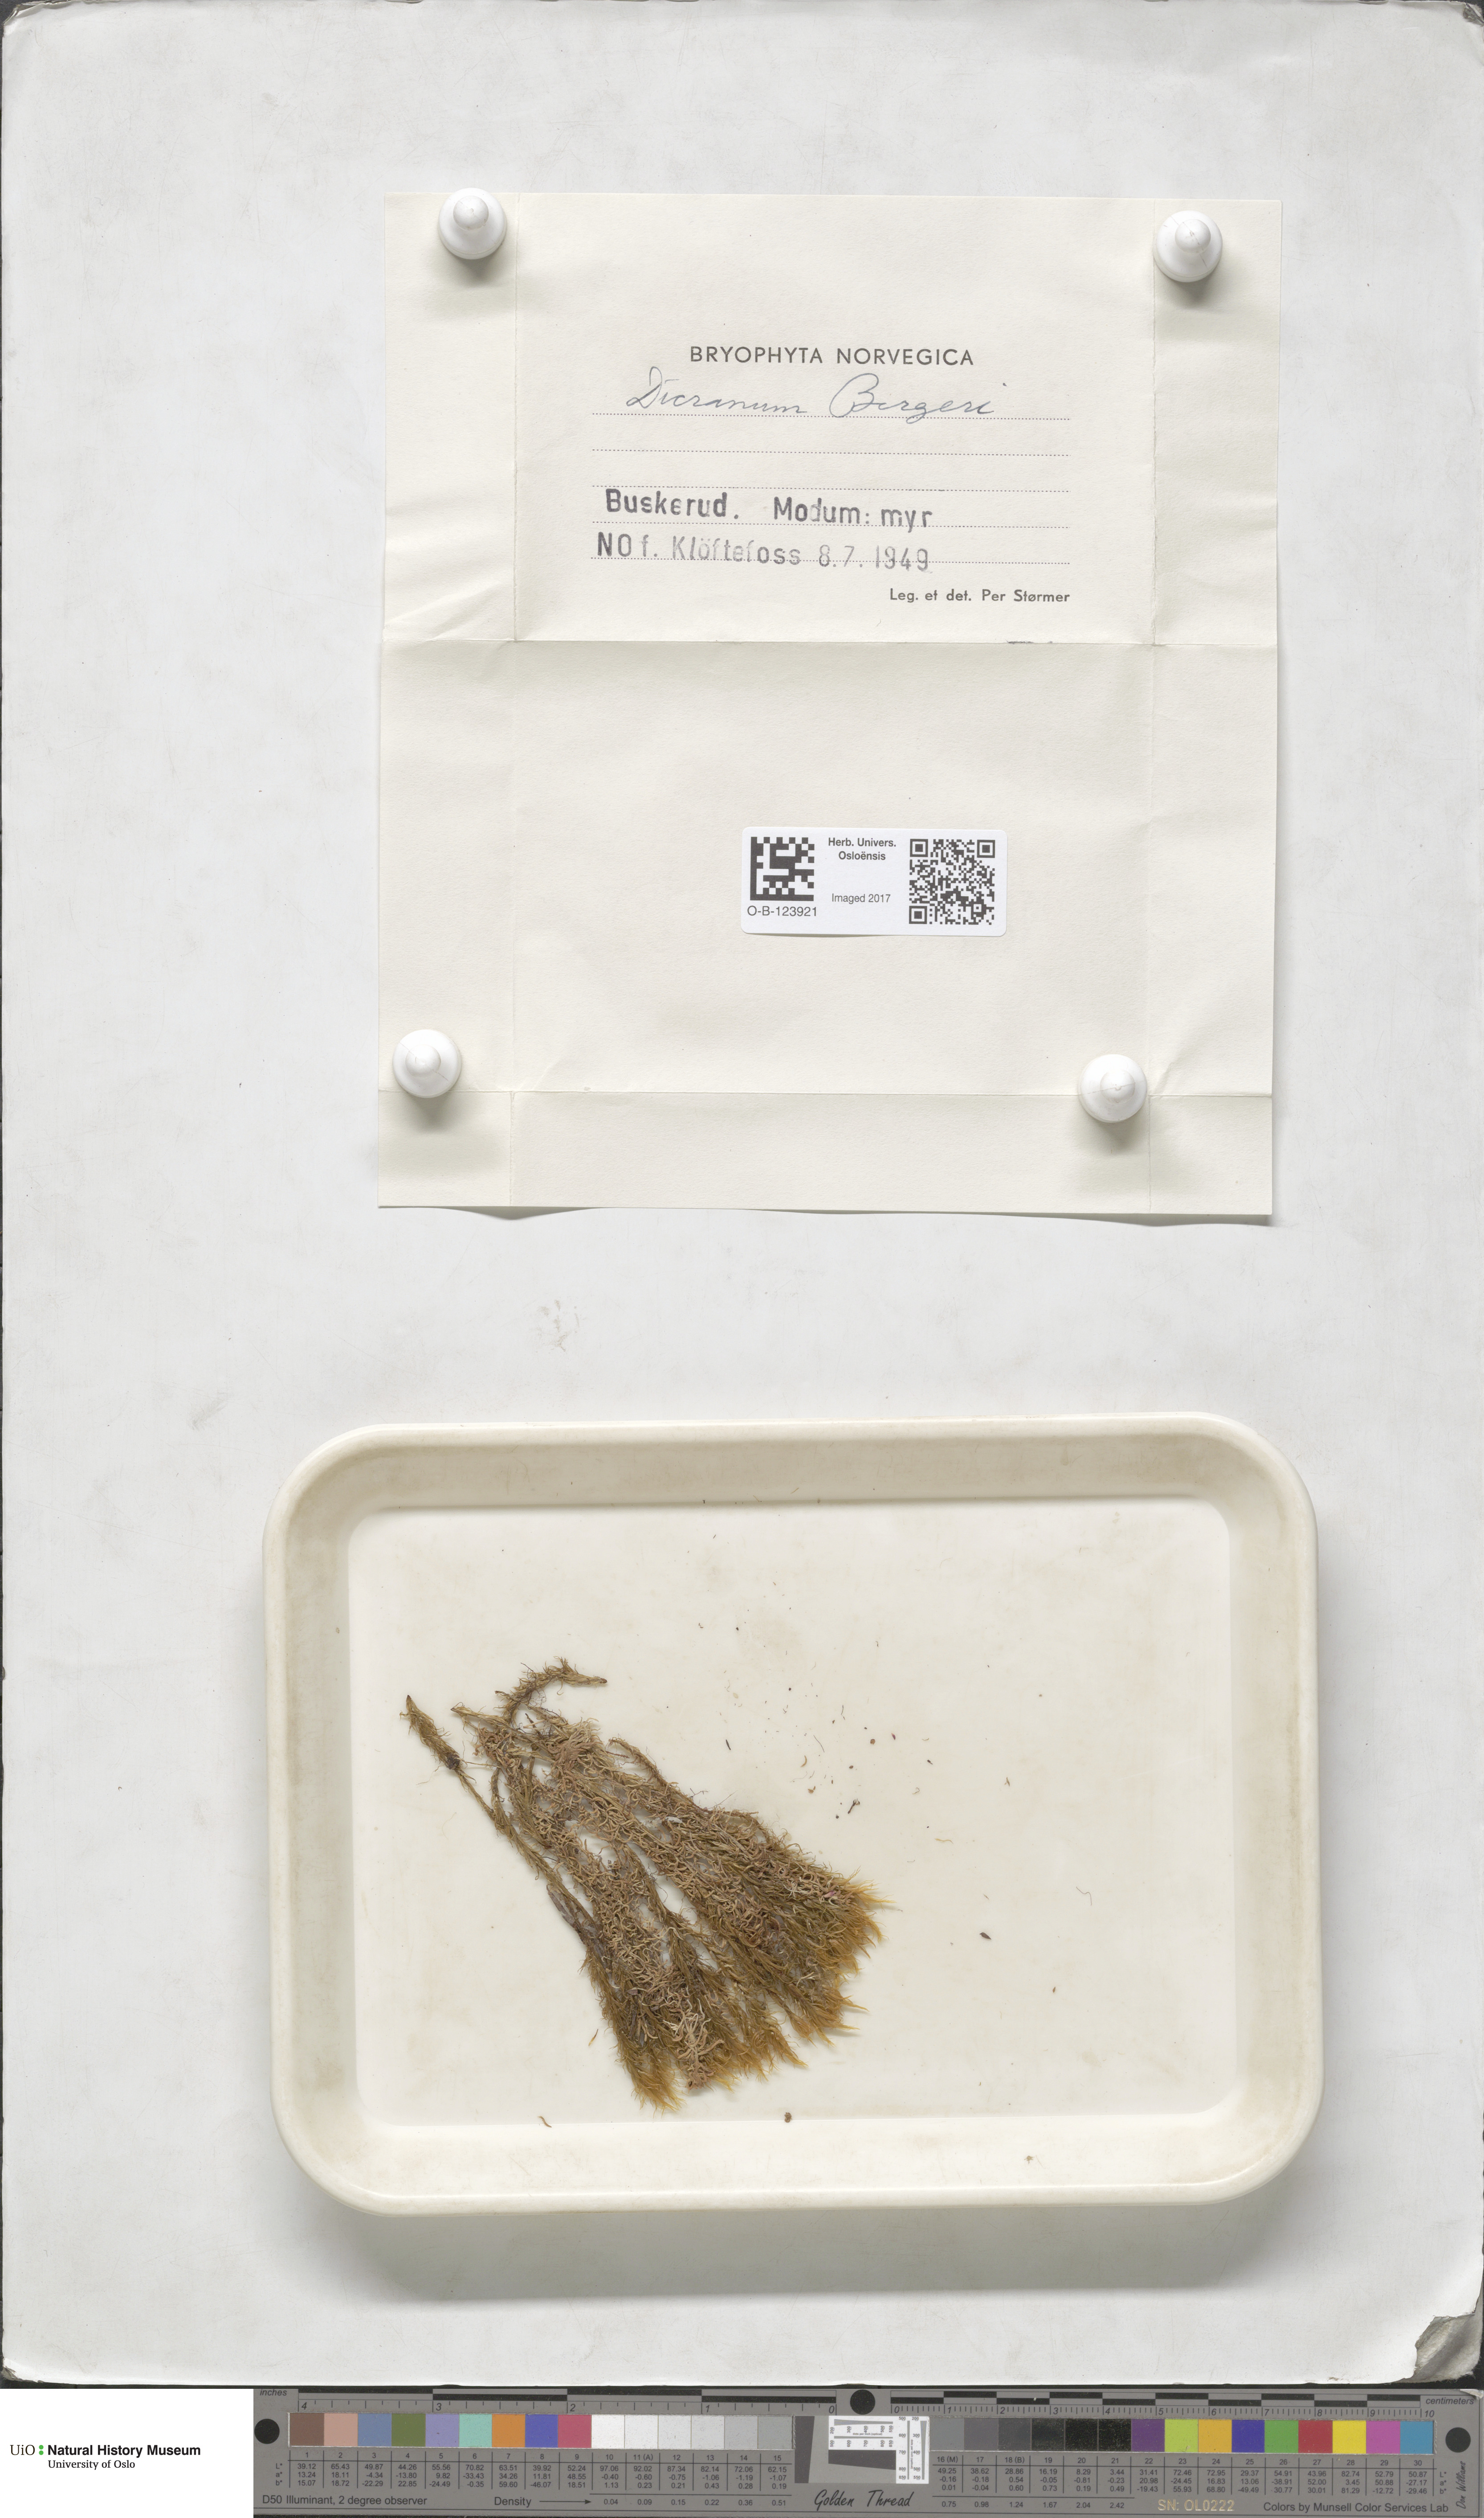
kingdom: Plantae
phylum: Bryophyta
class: Bryopsida
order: Dicranales
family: Dicranaceae
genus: Dicranum
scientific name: Dicranum undulatum
